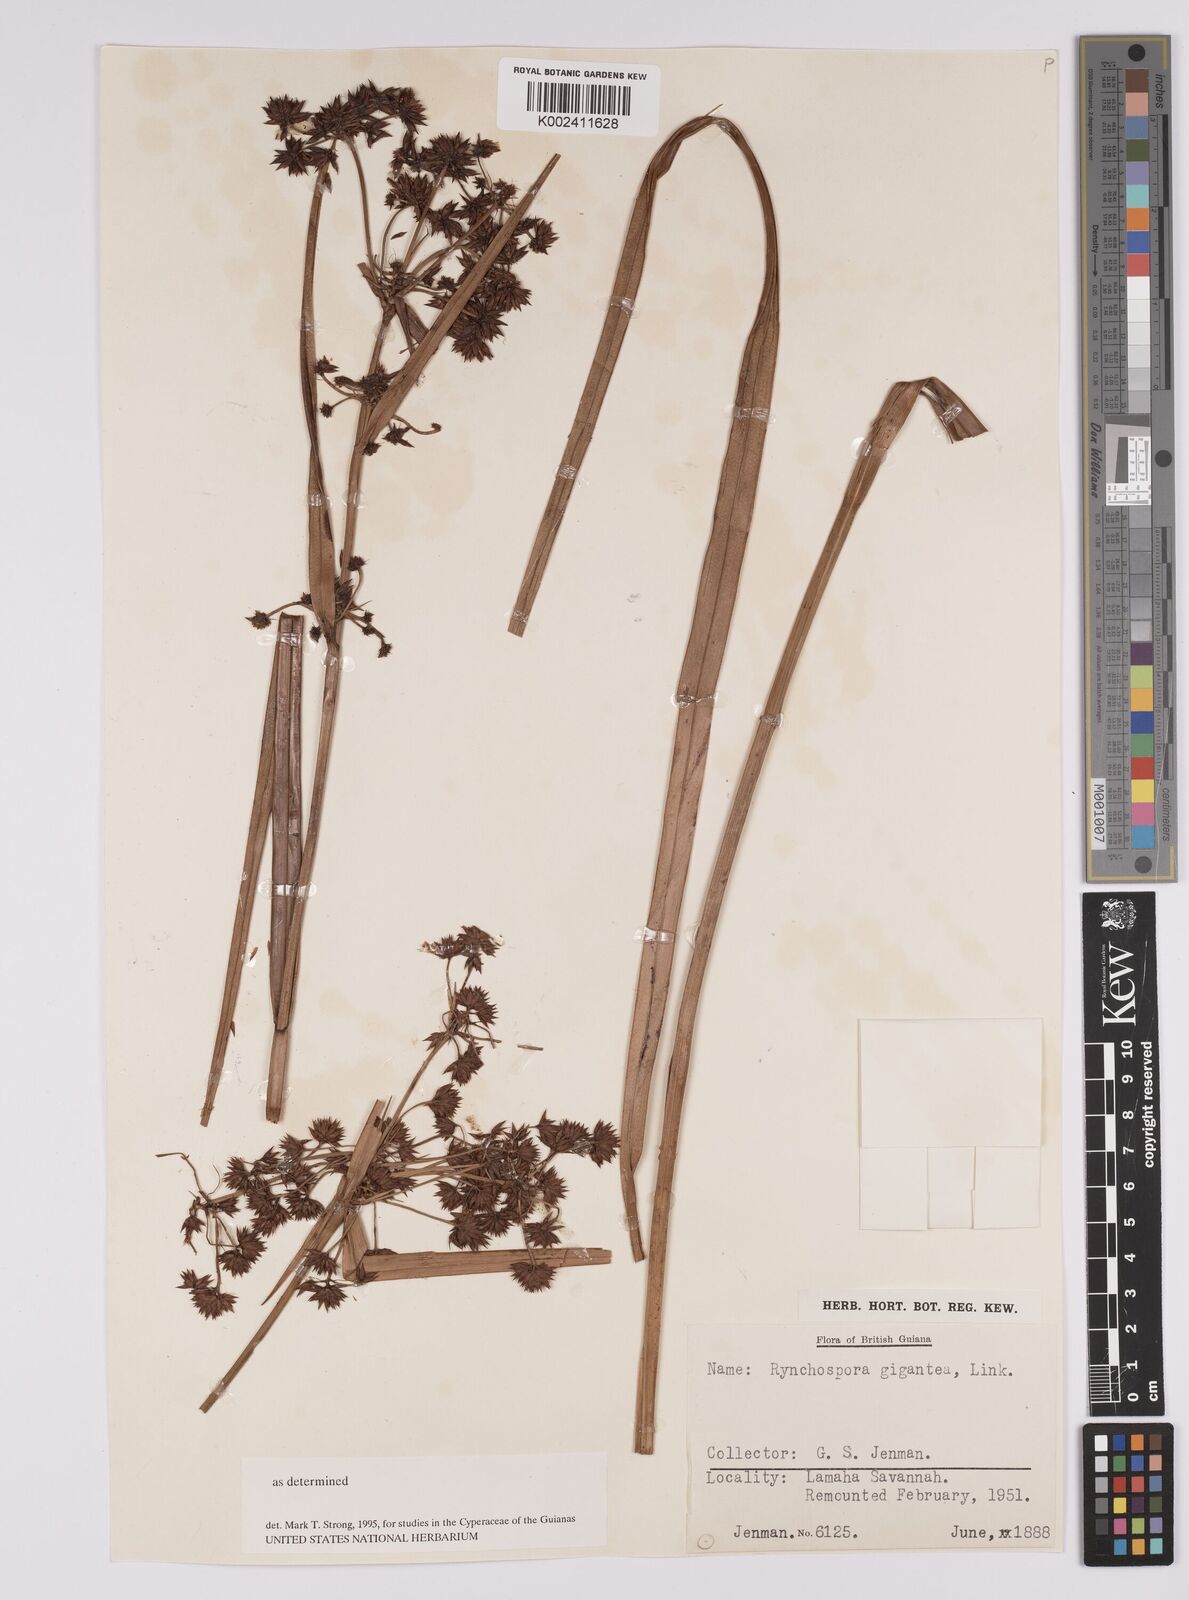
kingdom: Plantae
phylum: Tracheophyta
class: Liliopsida
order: Poales
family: Cyperaceae
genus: Rhynchospora
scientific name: Rhynchospora gigantea
